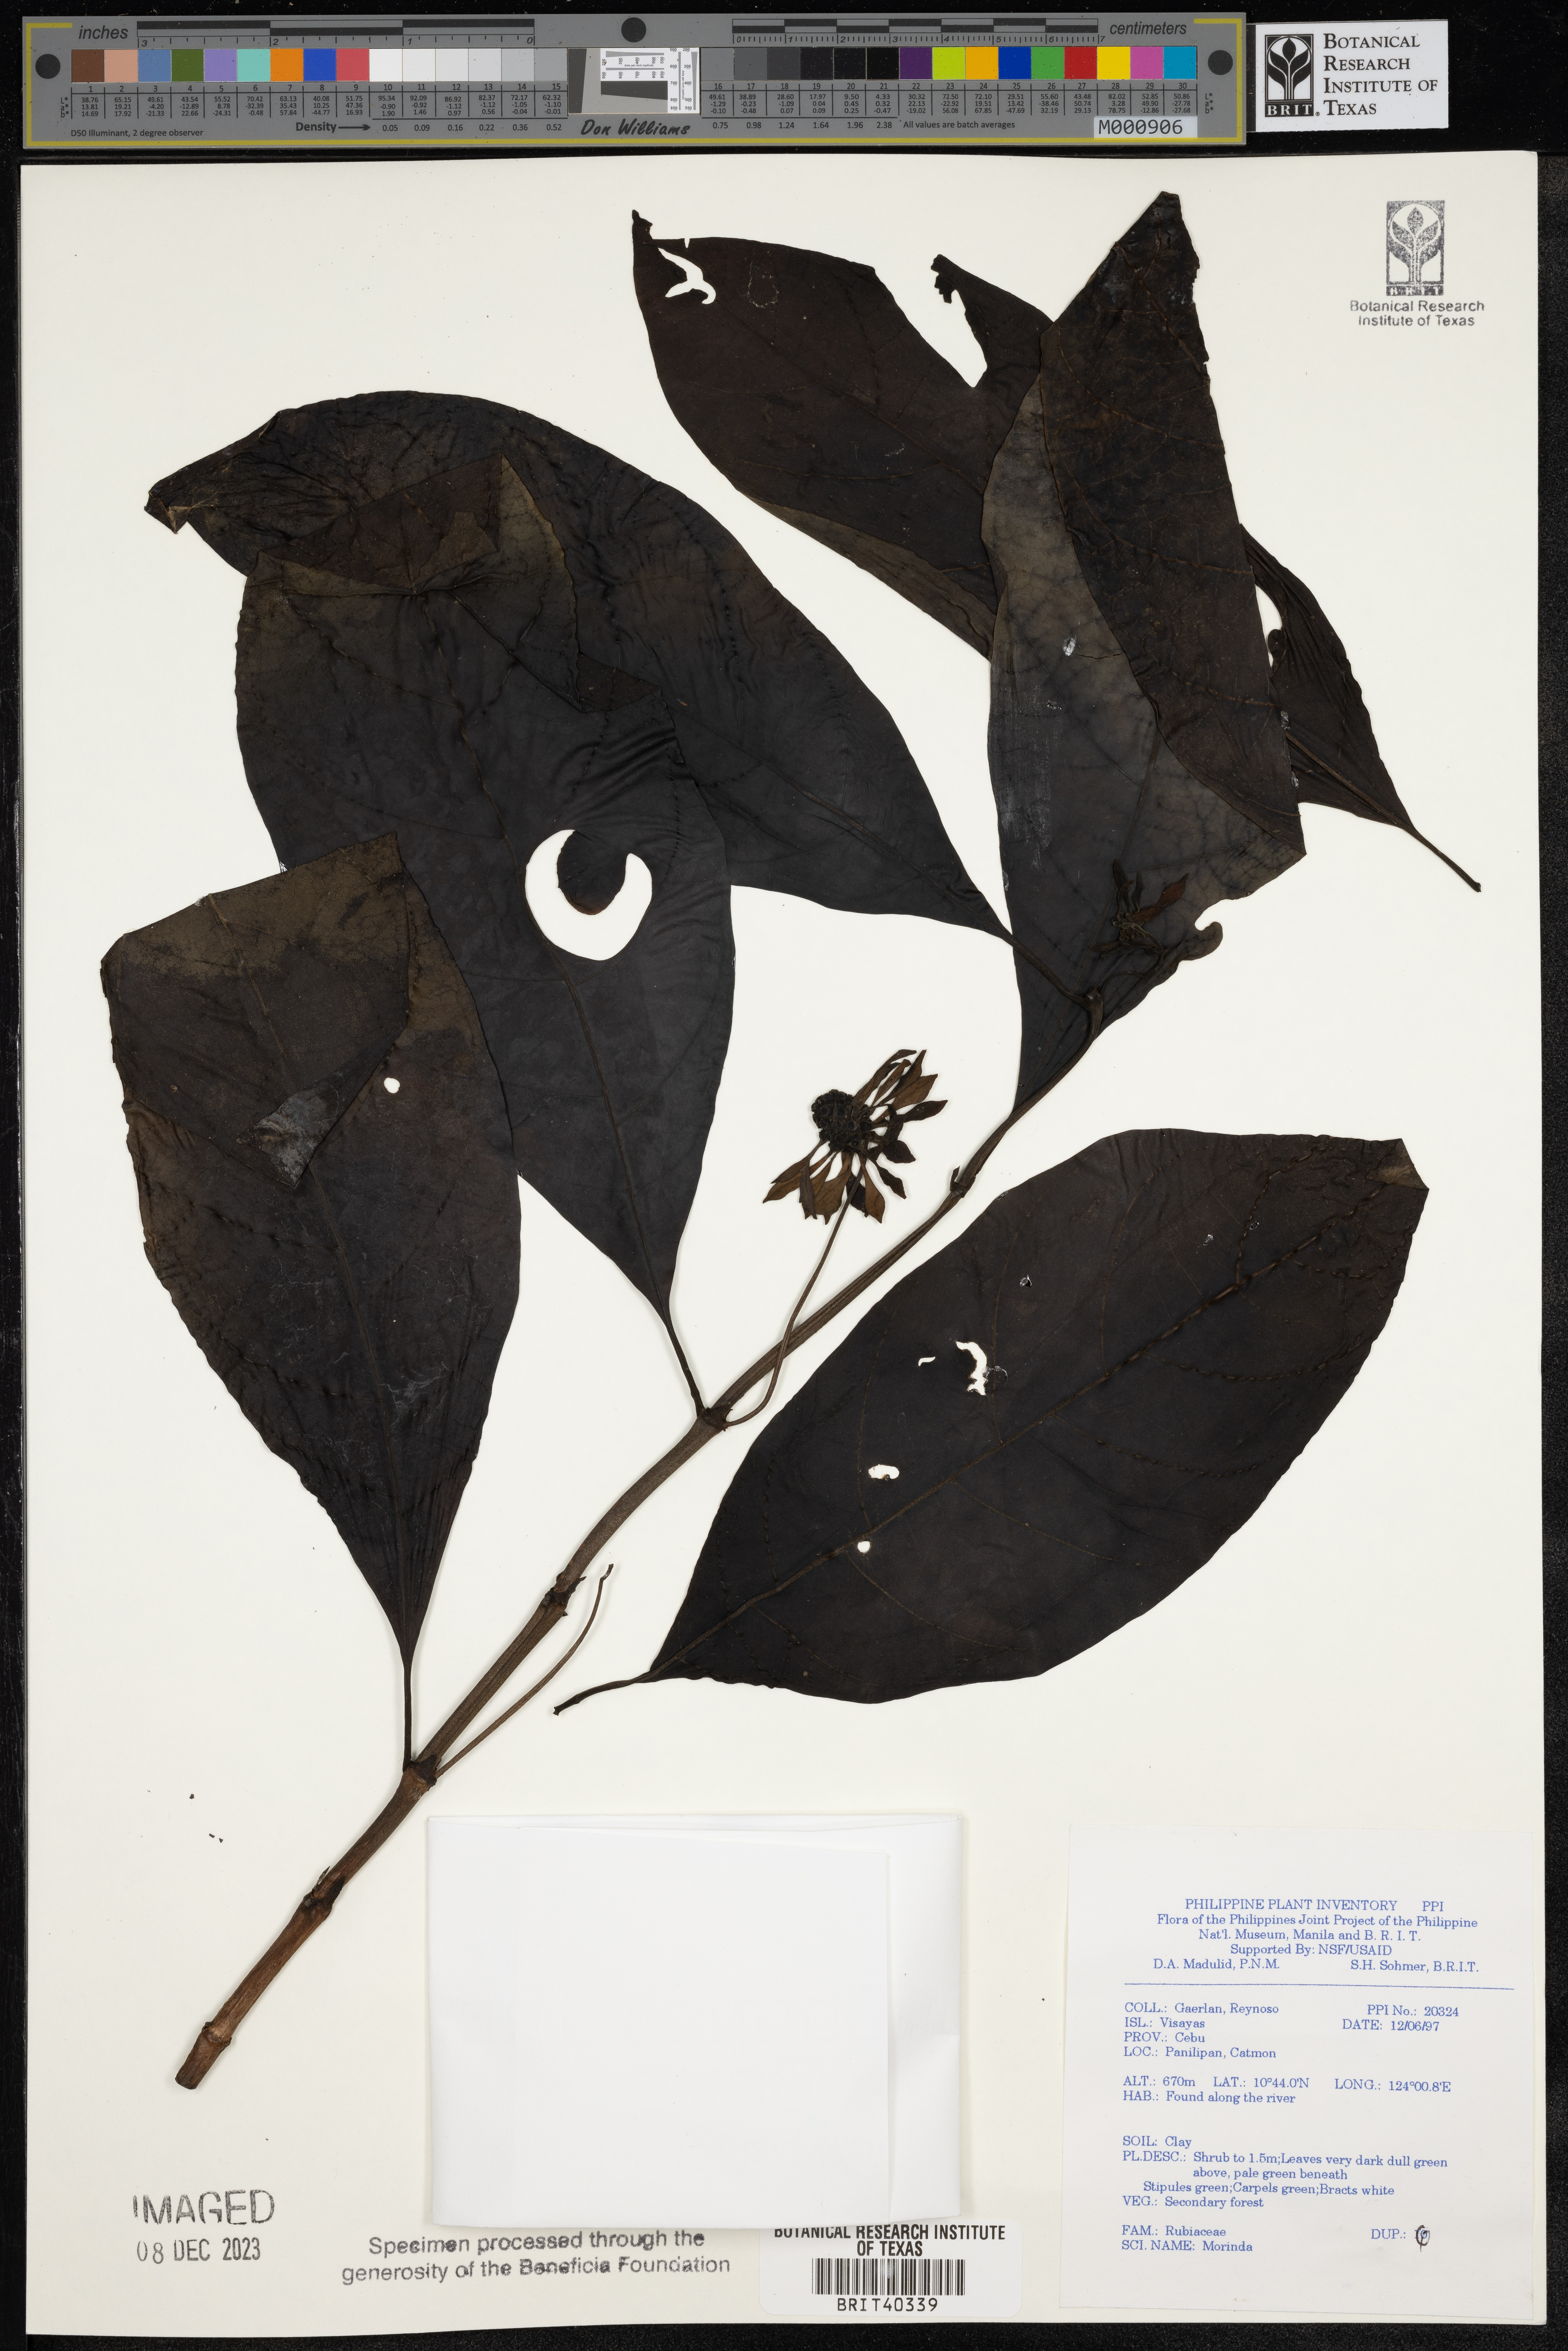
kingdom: Plantae
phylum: Tracheophyta
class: Magnoliopsida
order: Gentianales
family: Rubiaceae
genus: Morinda
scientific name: Morinda
